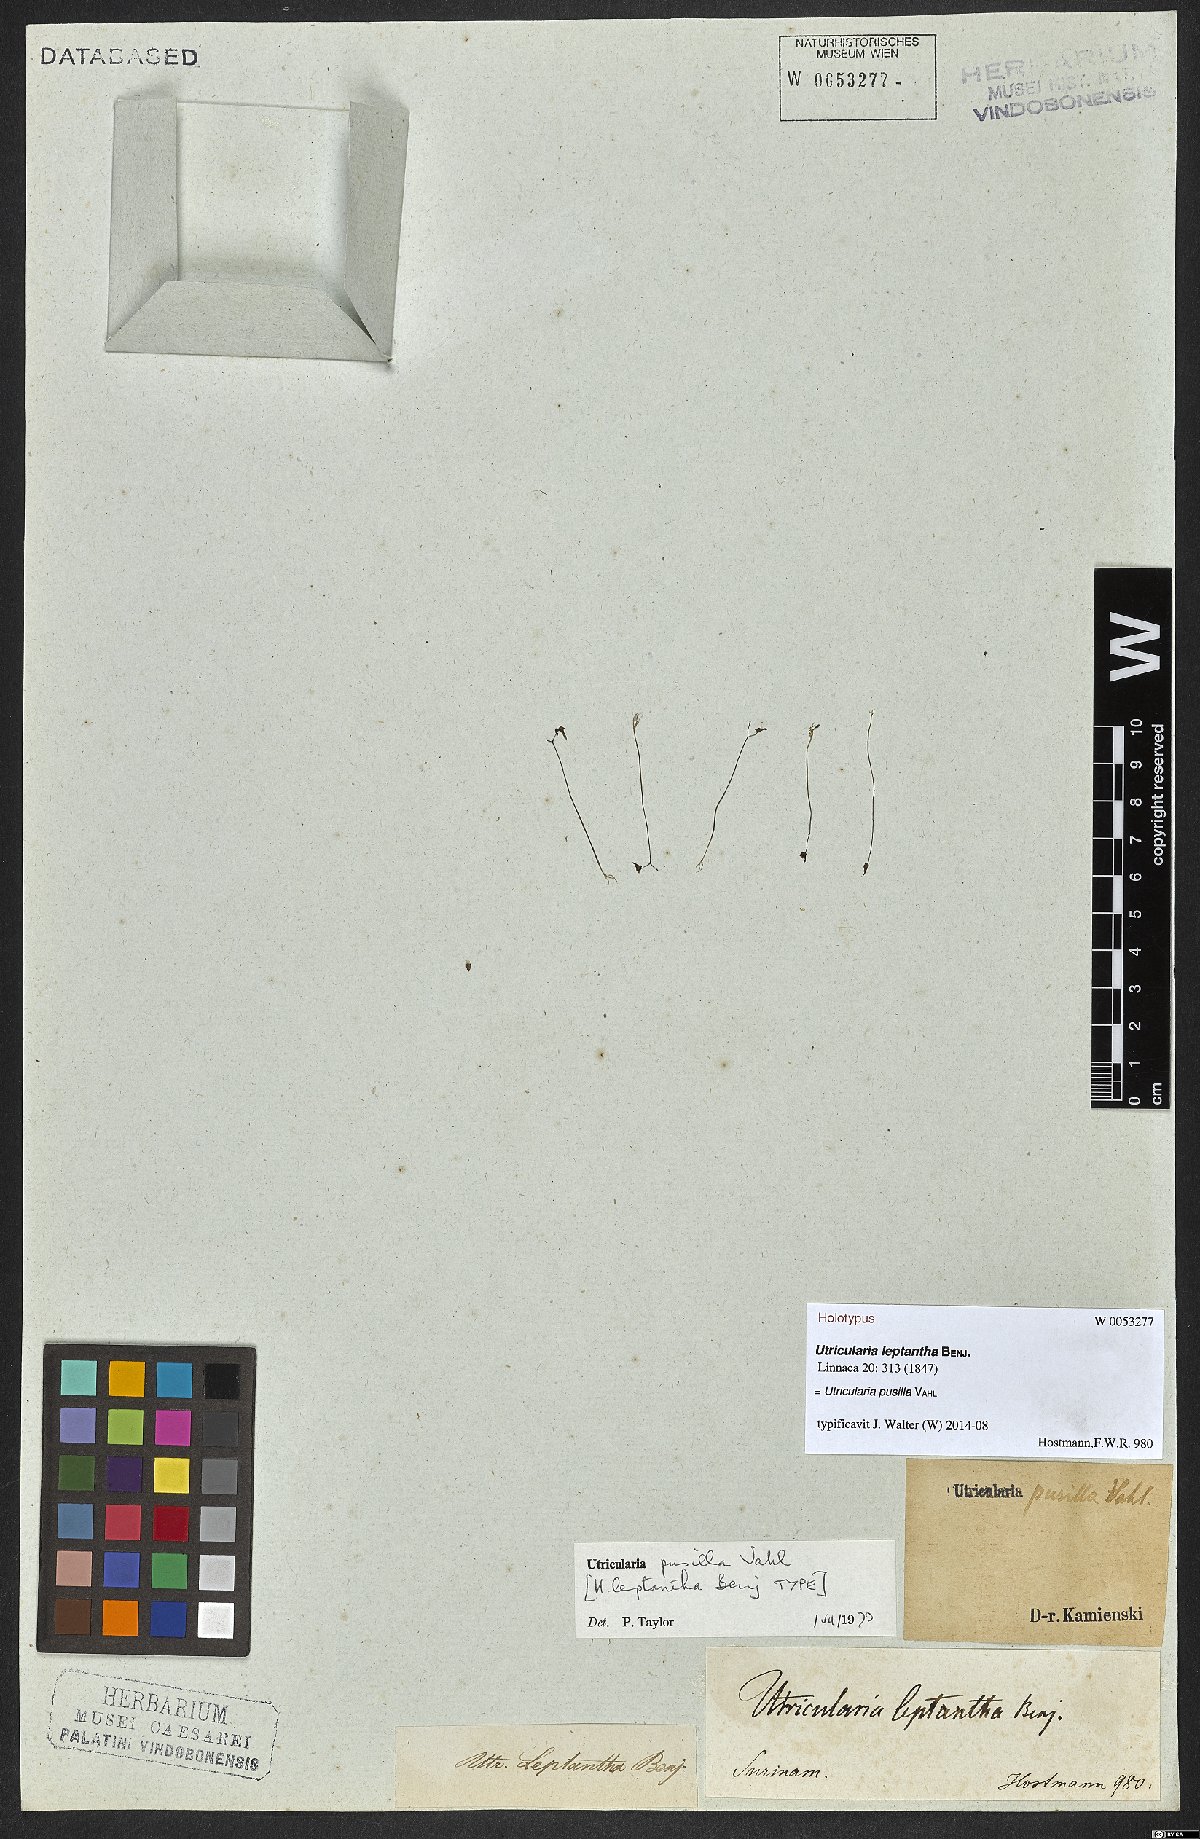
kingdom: Plantae
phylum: Tracheophyta
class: Magnoliopsida
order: Lamiales
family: Lentibulariaceae
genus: Utricularia
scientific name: Utricularia pusilla
